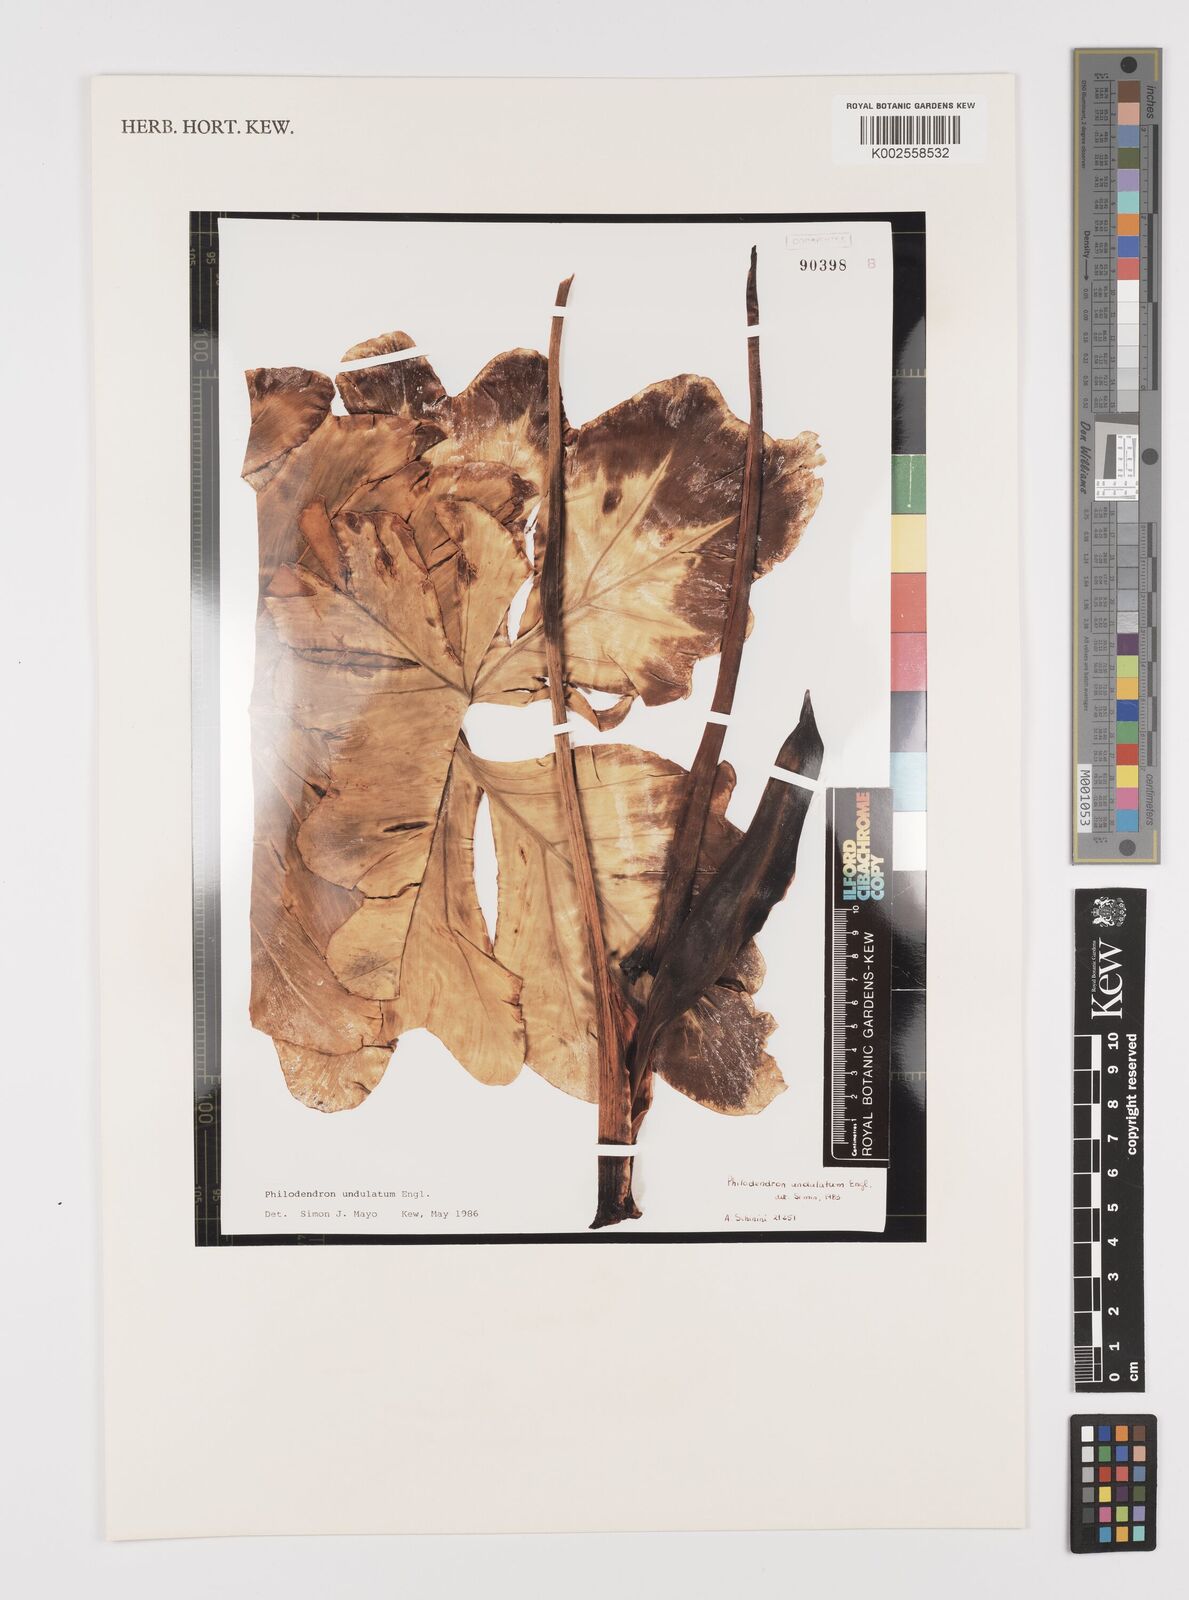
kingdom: Plantae
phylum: Tracheophyta
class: Liliopsida
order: Alismatales
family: Araceae
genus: Thaumatophyllum
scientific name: Thaumatophyllum undulatum
